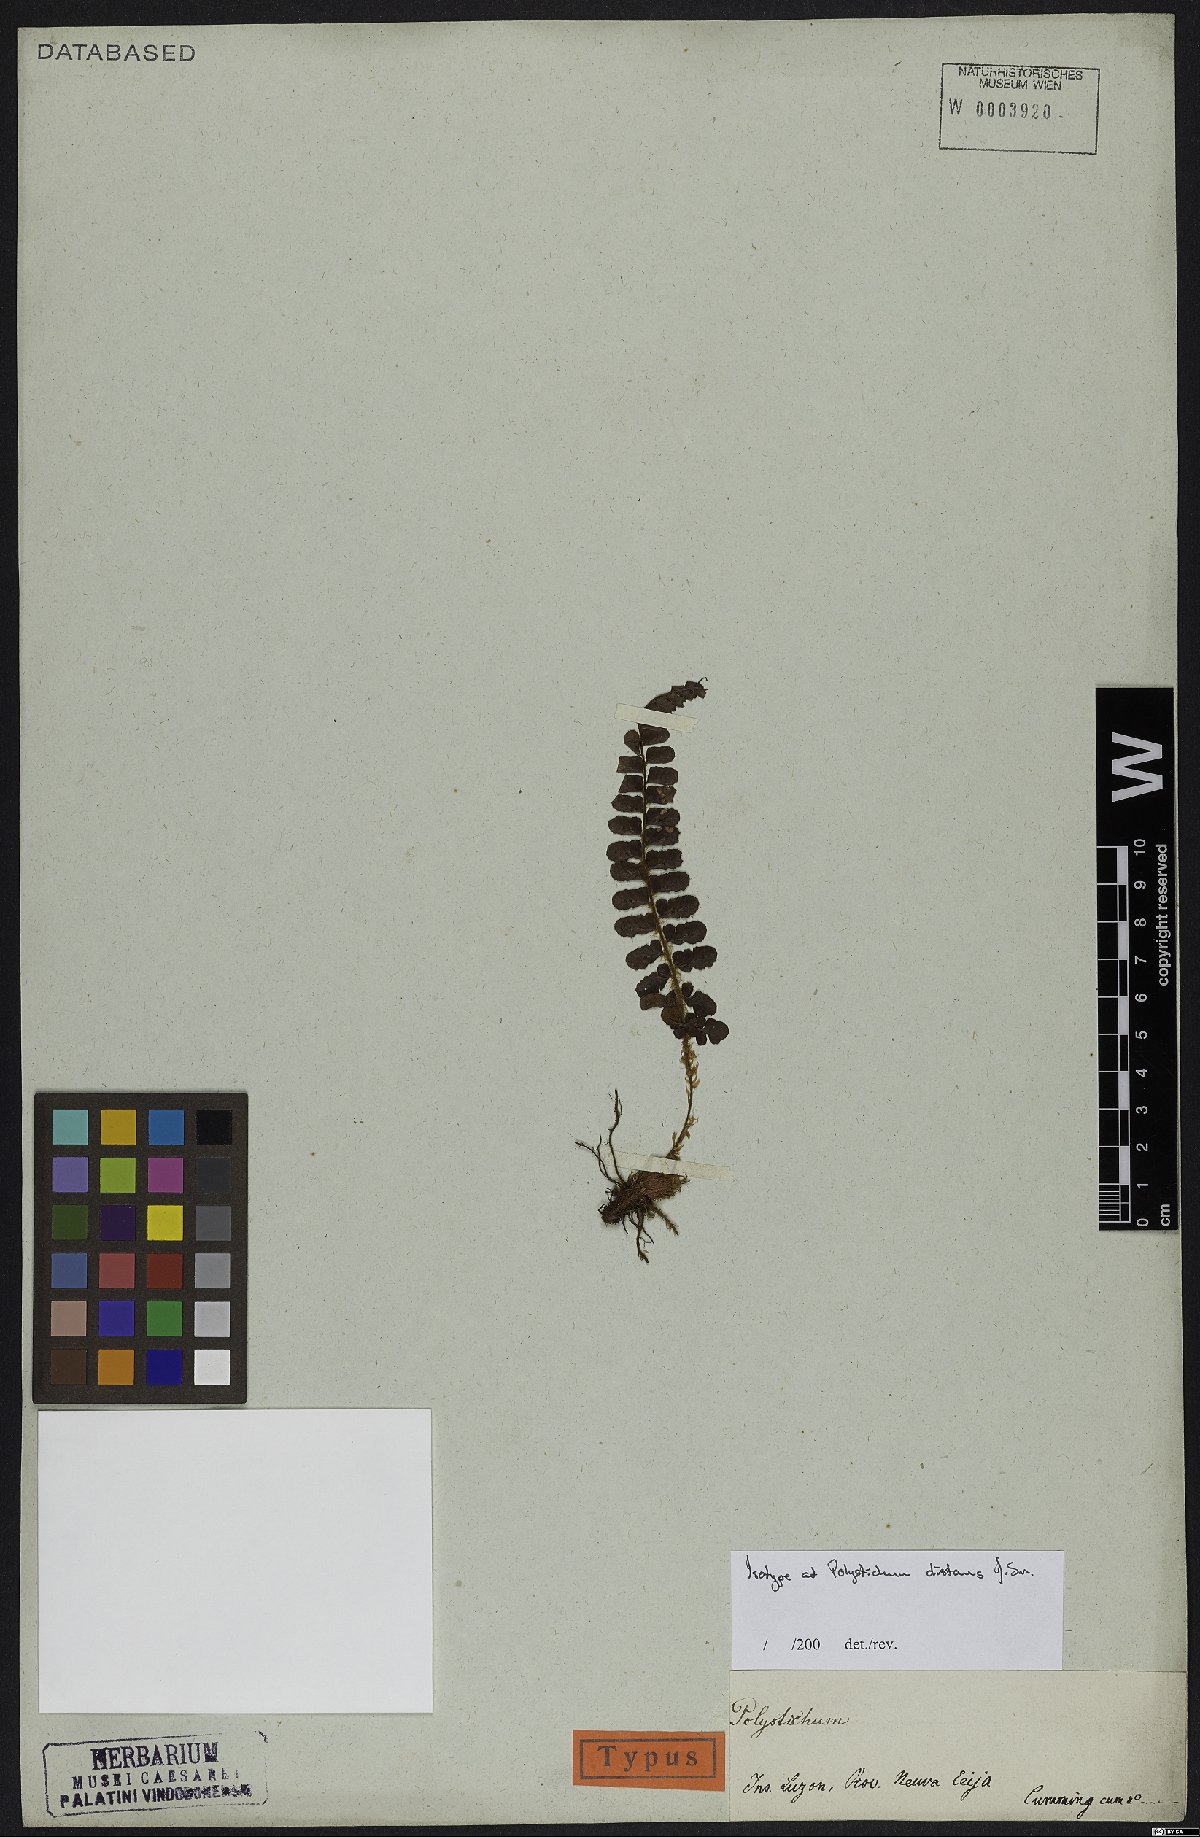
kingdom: Plantae
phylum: Tracheophyta
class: Polypodiopsida
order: Polypodiales
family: Dryopteridaceae
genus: Polystichum
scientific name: Polystichum distans
